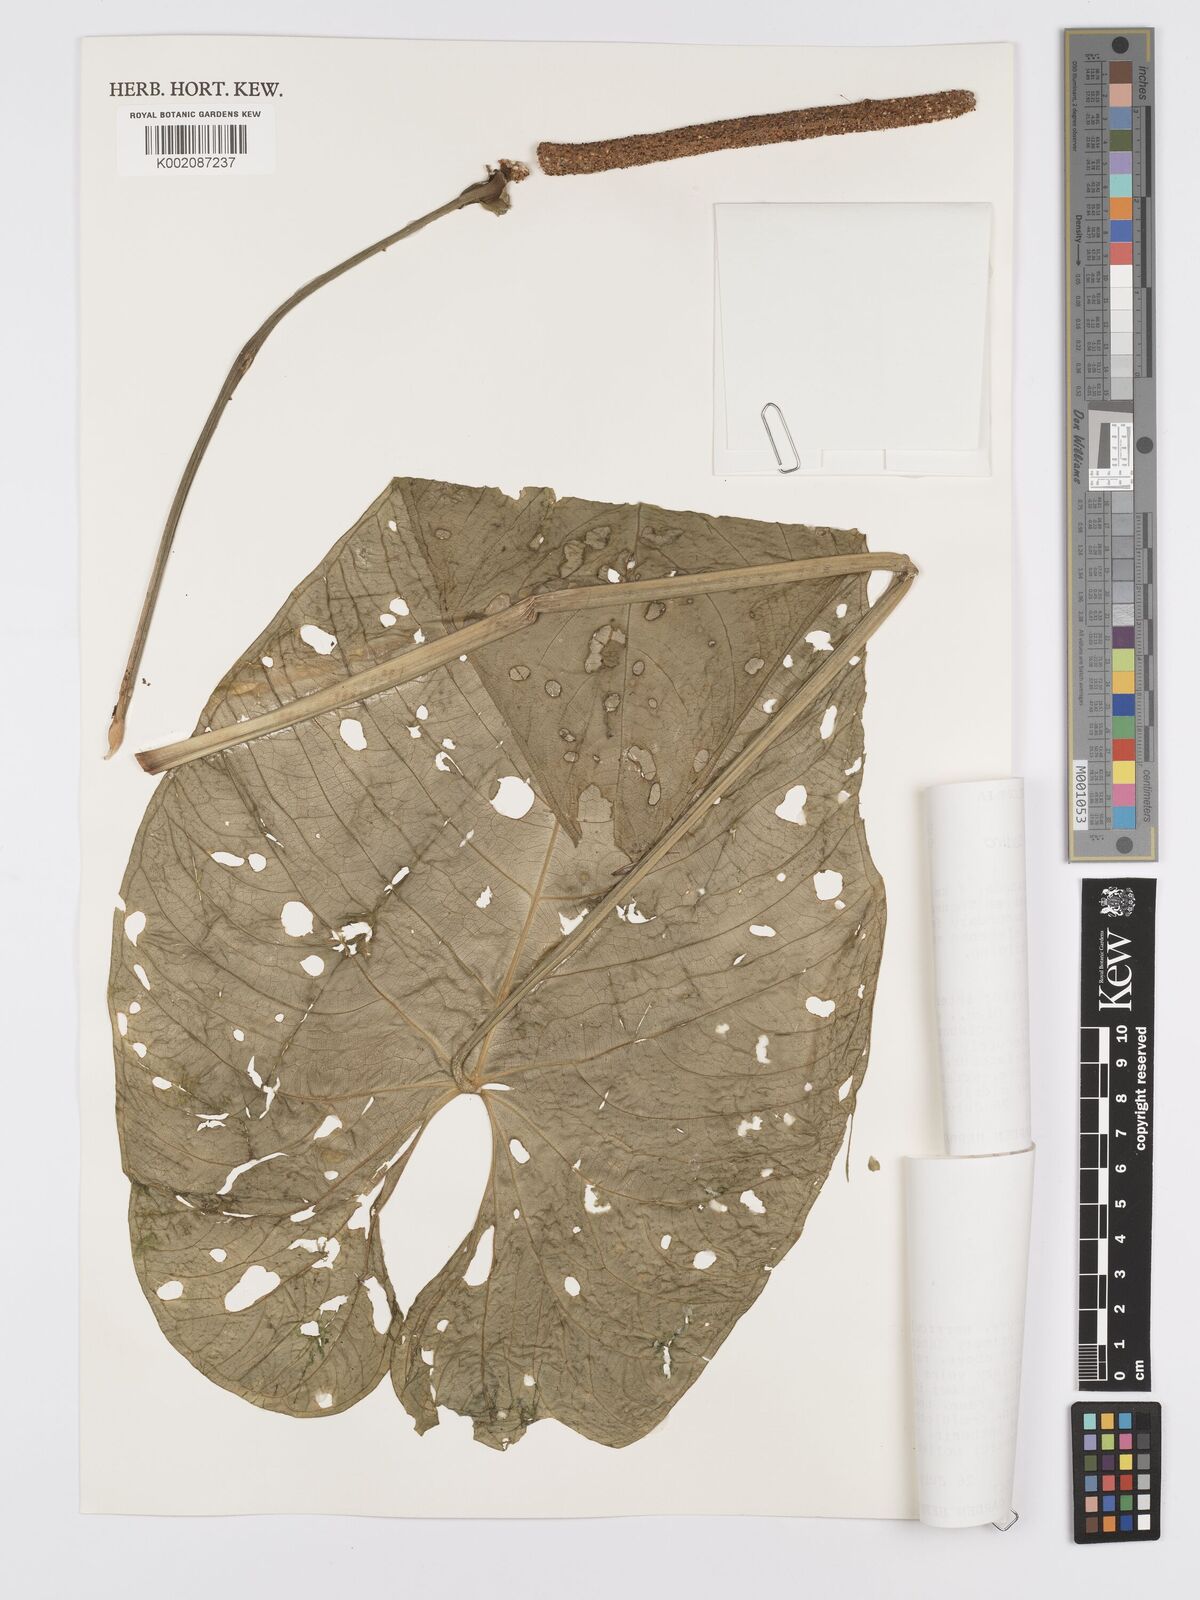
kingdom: Plantae
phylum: Tracheophyta
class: Liliopsida
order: Alismatales
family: Araceae
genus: Anthurium
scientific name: Anthurium versicolor
